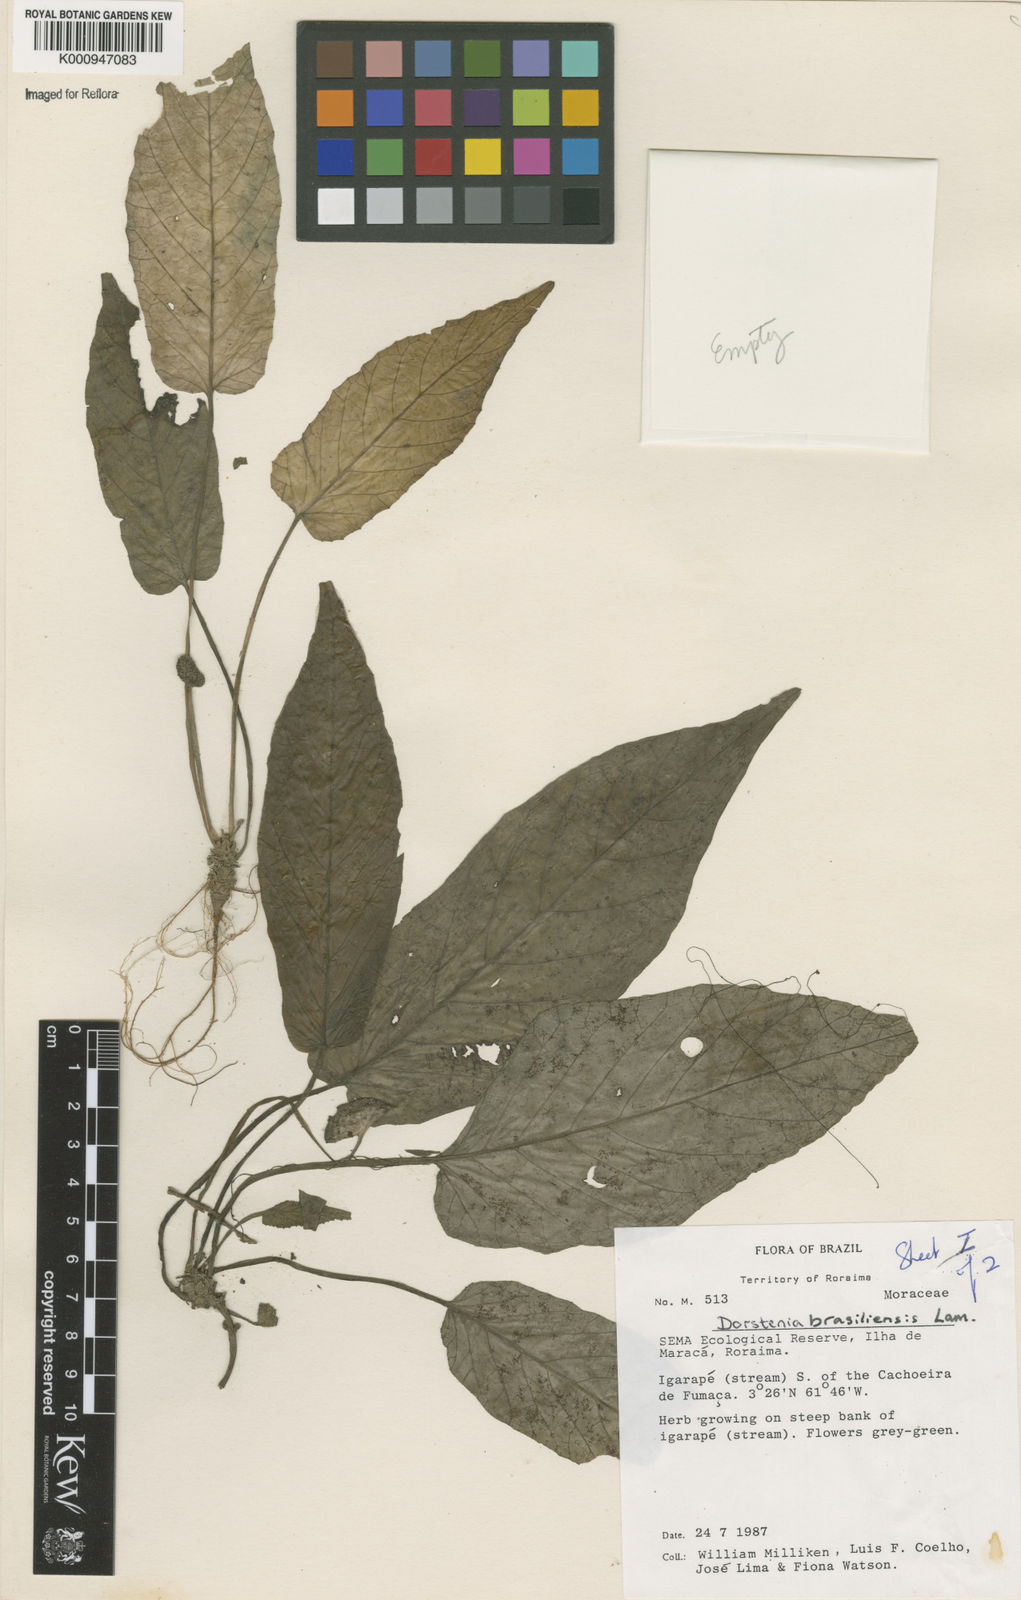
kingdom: Plantae
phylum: Tracheophyta
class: Magnoliopsida
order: Rosales
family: Moraceae
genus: Dorstenia
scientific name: Dorstenia brasiliensis
